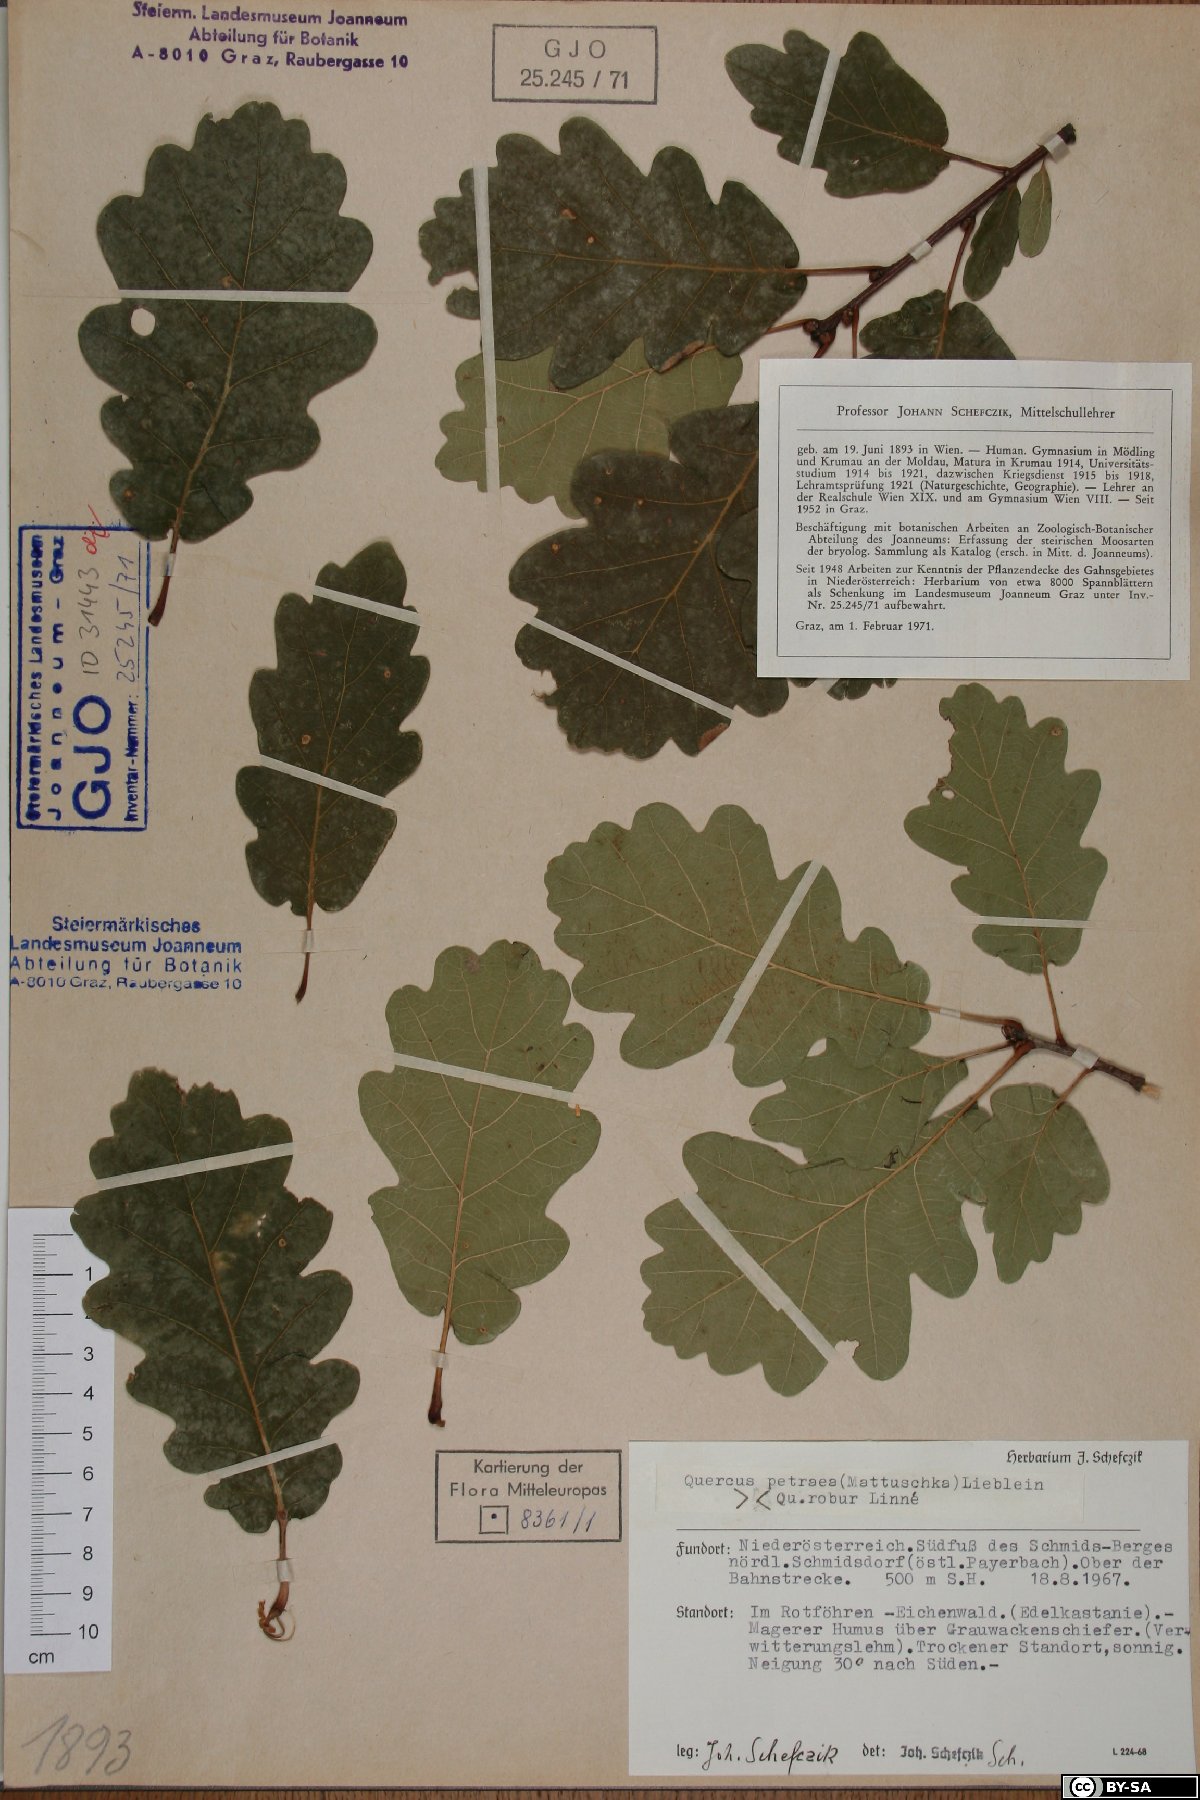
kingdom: Plantae
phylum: Tracheophyta
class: Magnoliopsida
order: Fagales
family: Fagaceae
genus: Quercus
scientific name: Quercus petraea
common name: Sessile oak
